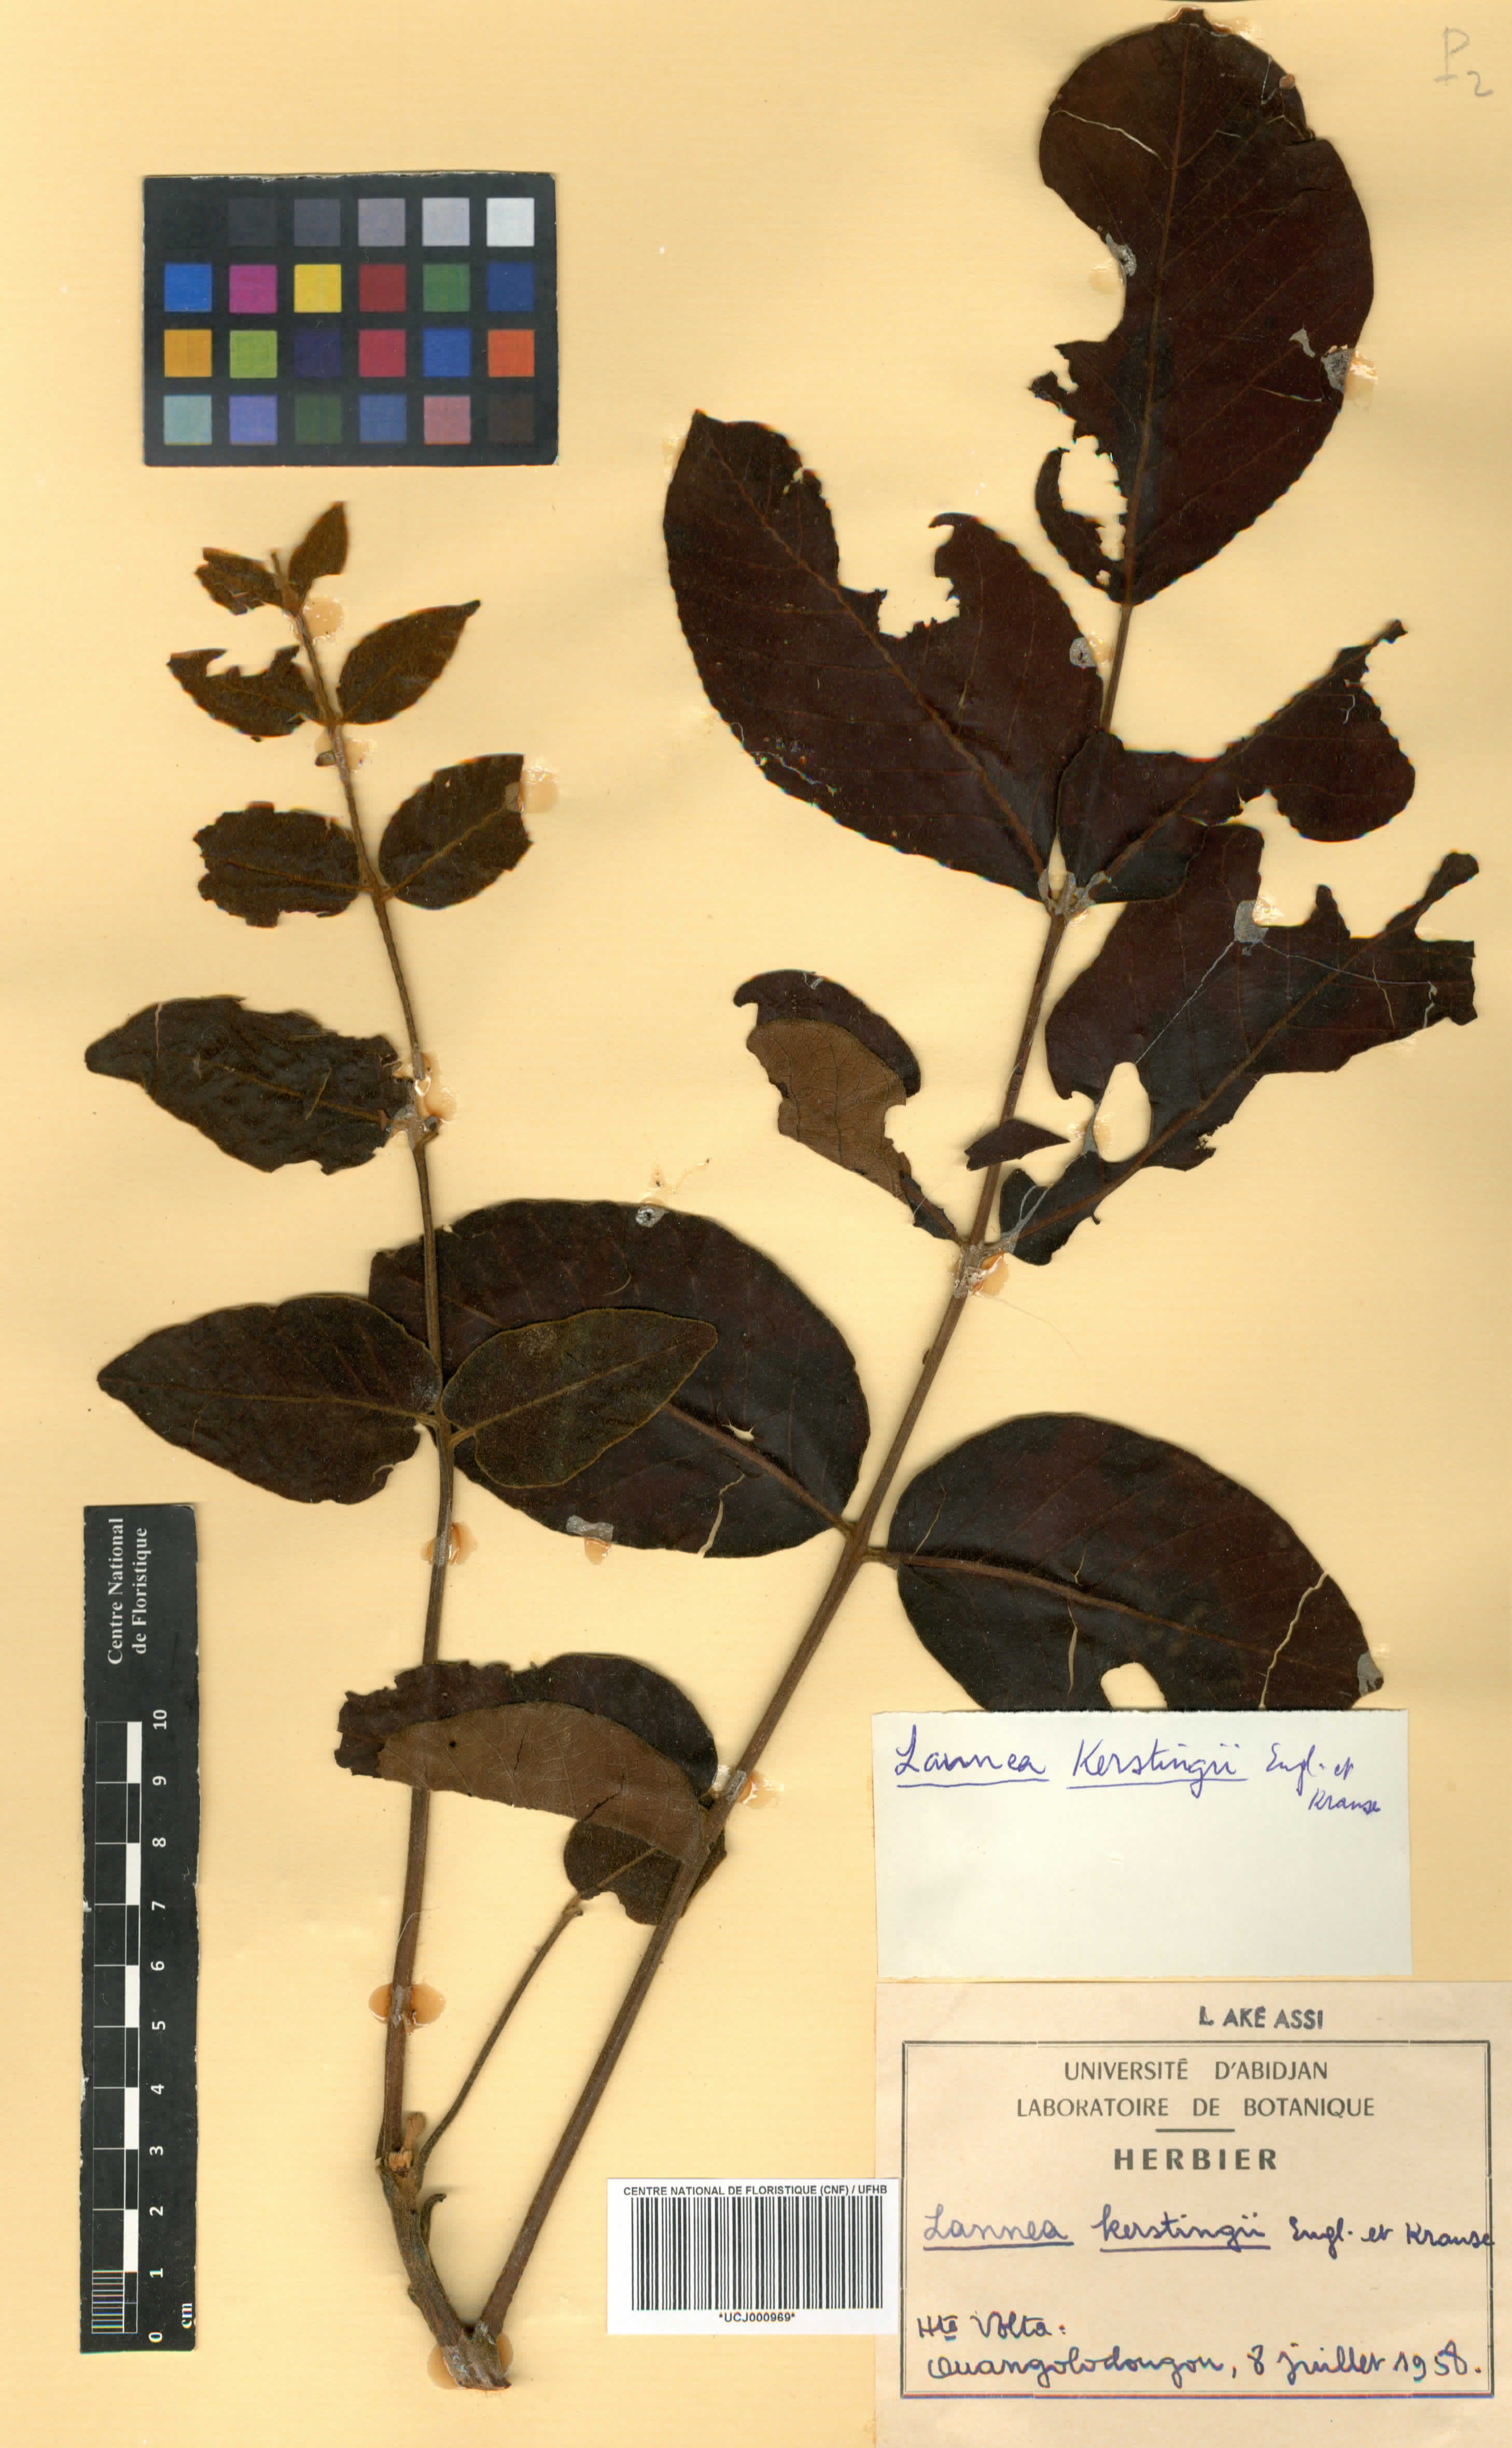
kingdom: Plantae
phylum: Tracheophyta
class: Magnoliopsida
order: Sapindales
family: Anacardiaceae
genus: Lannea
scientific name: Lannea barteri
